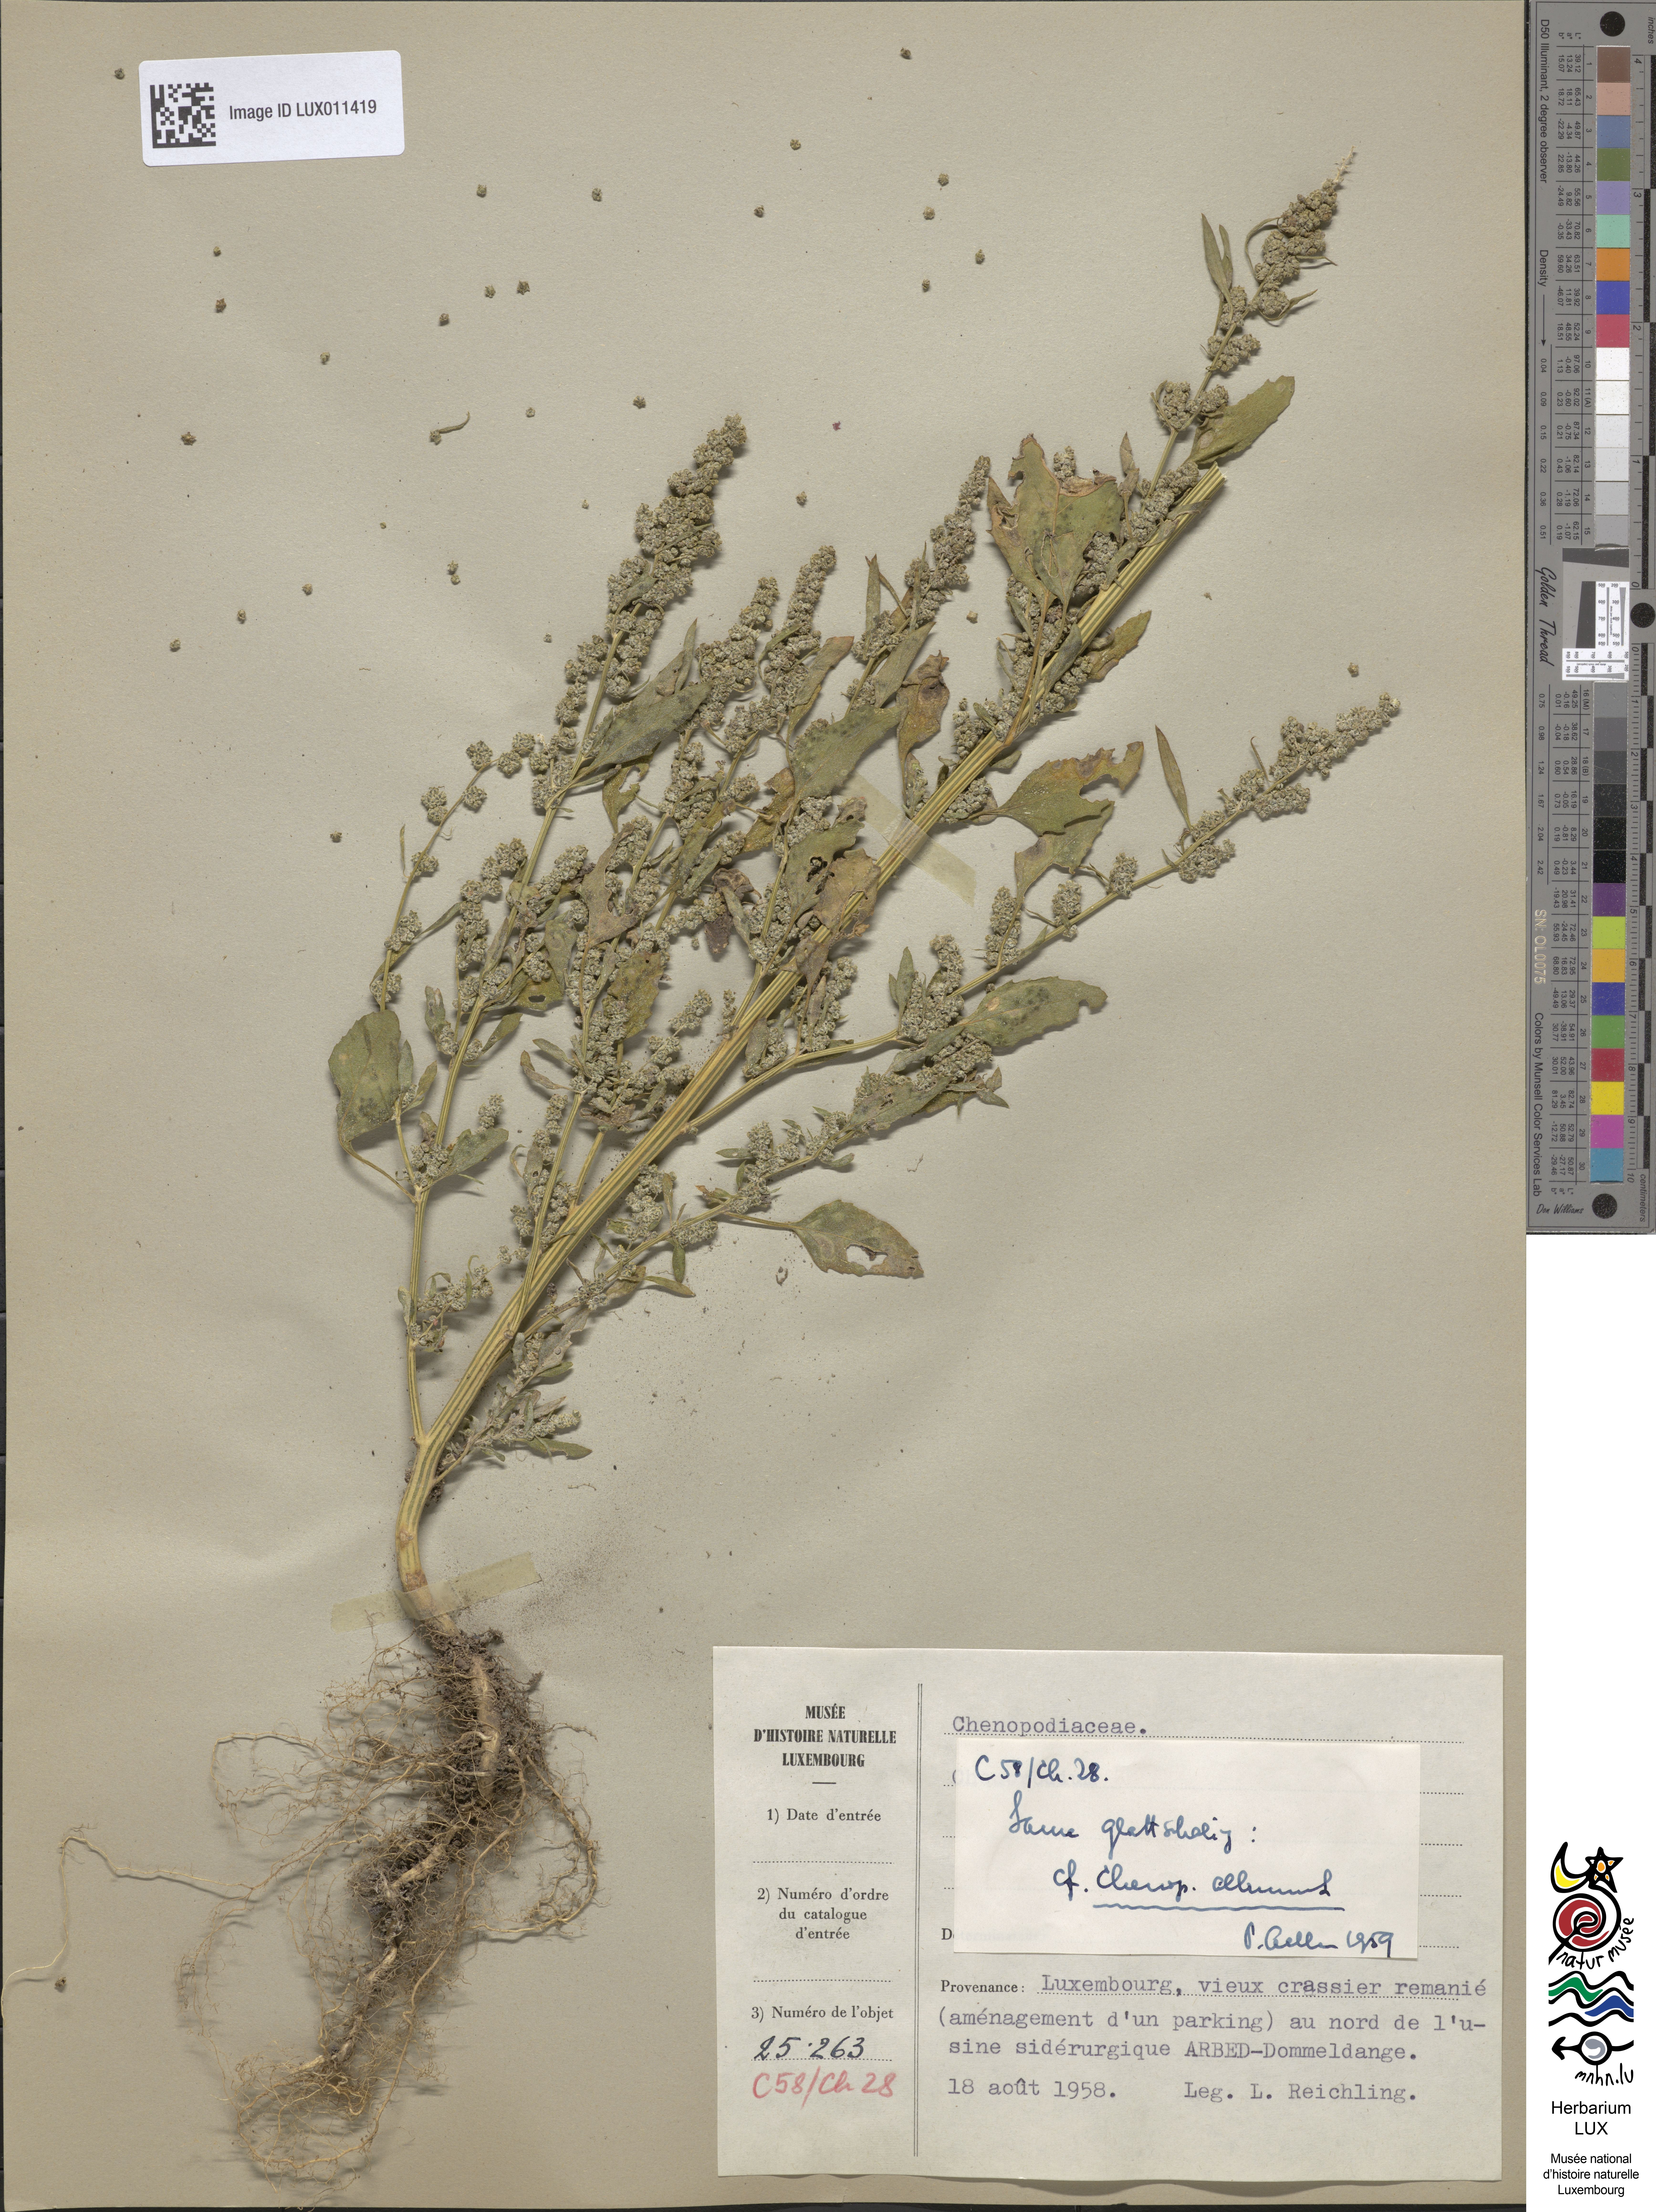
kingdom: Plantae
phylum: Tracheophyta
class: Magnoliopsida
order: Caryophyllales
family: Amaranthaceae
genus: Chenopodium
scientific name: Chenopodium album
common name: Fat-hen
